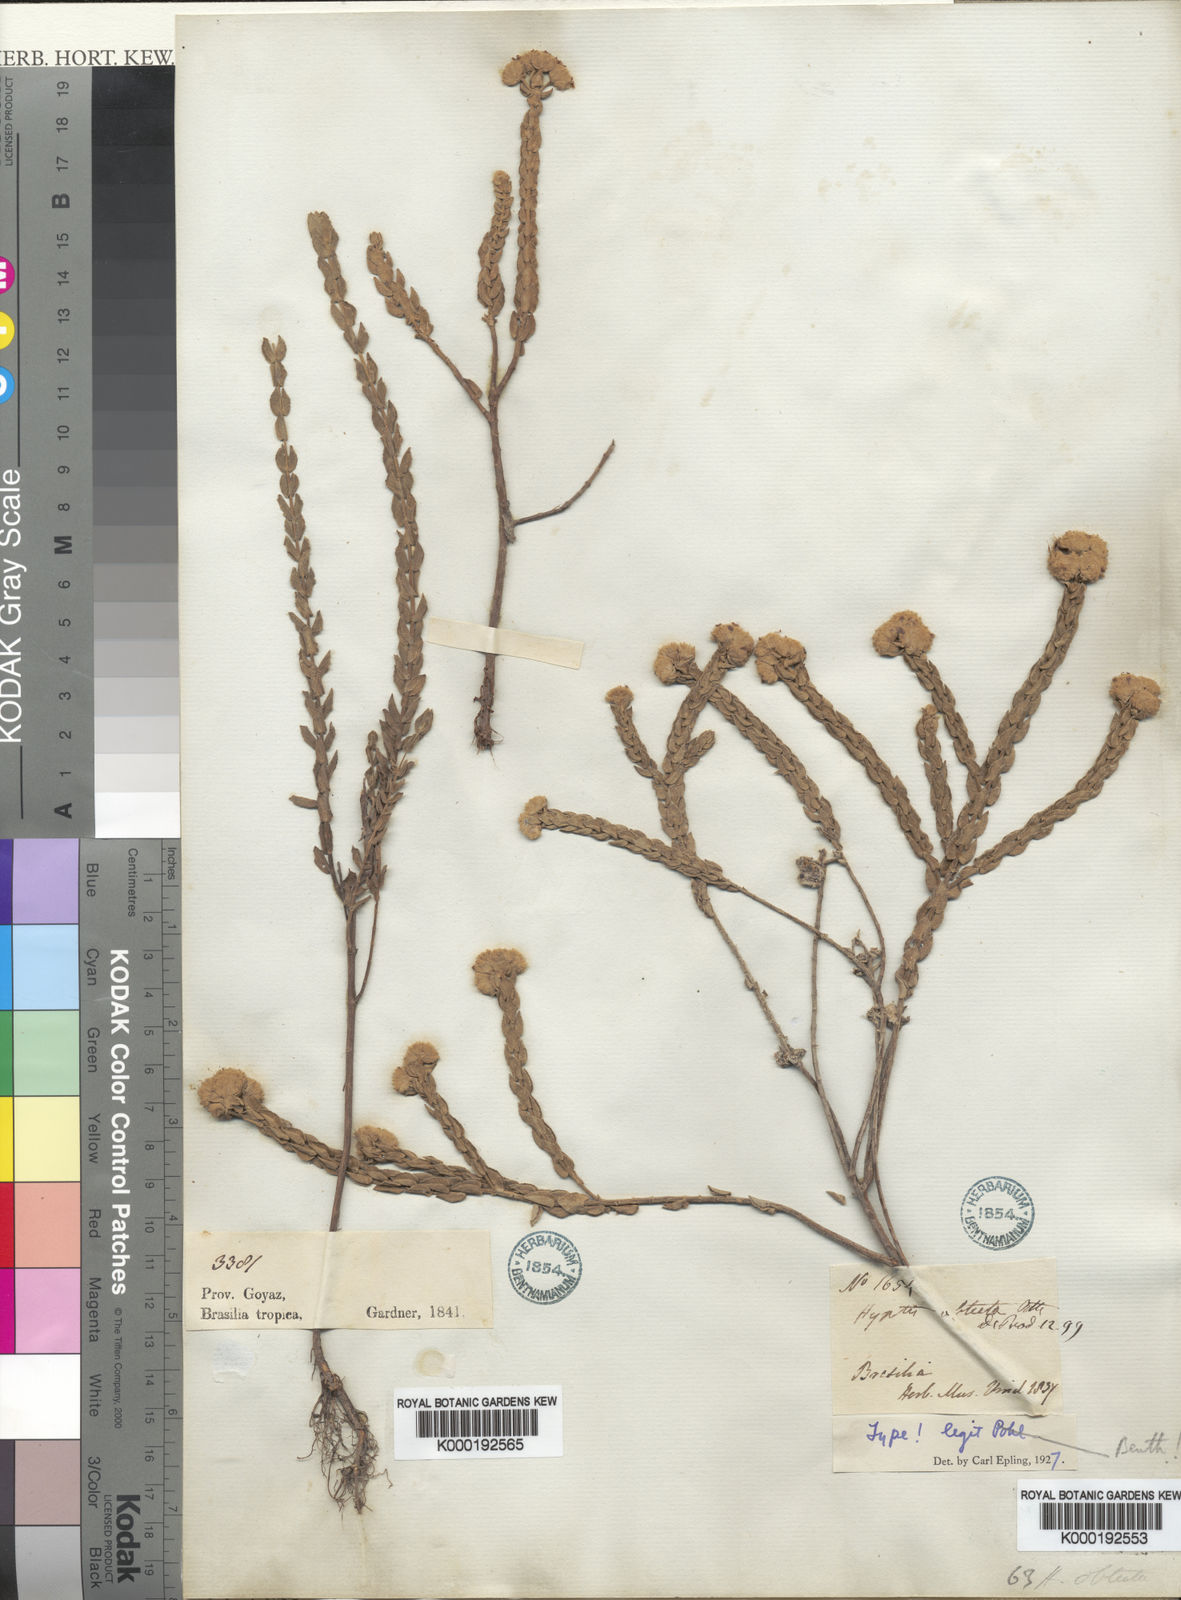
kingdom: Plantae
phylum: Tracheophyta
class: Magnoliopsida
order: Lamiales
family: Lamiaceae
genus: Hyptis
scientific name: Hyptis obtecta
